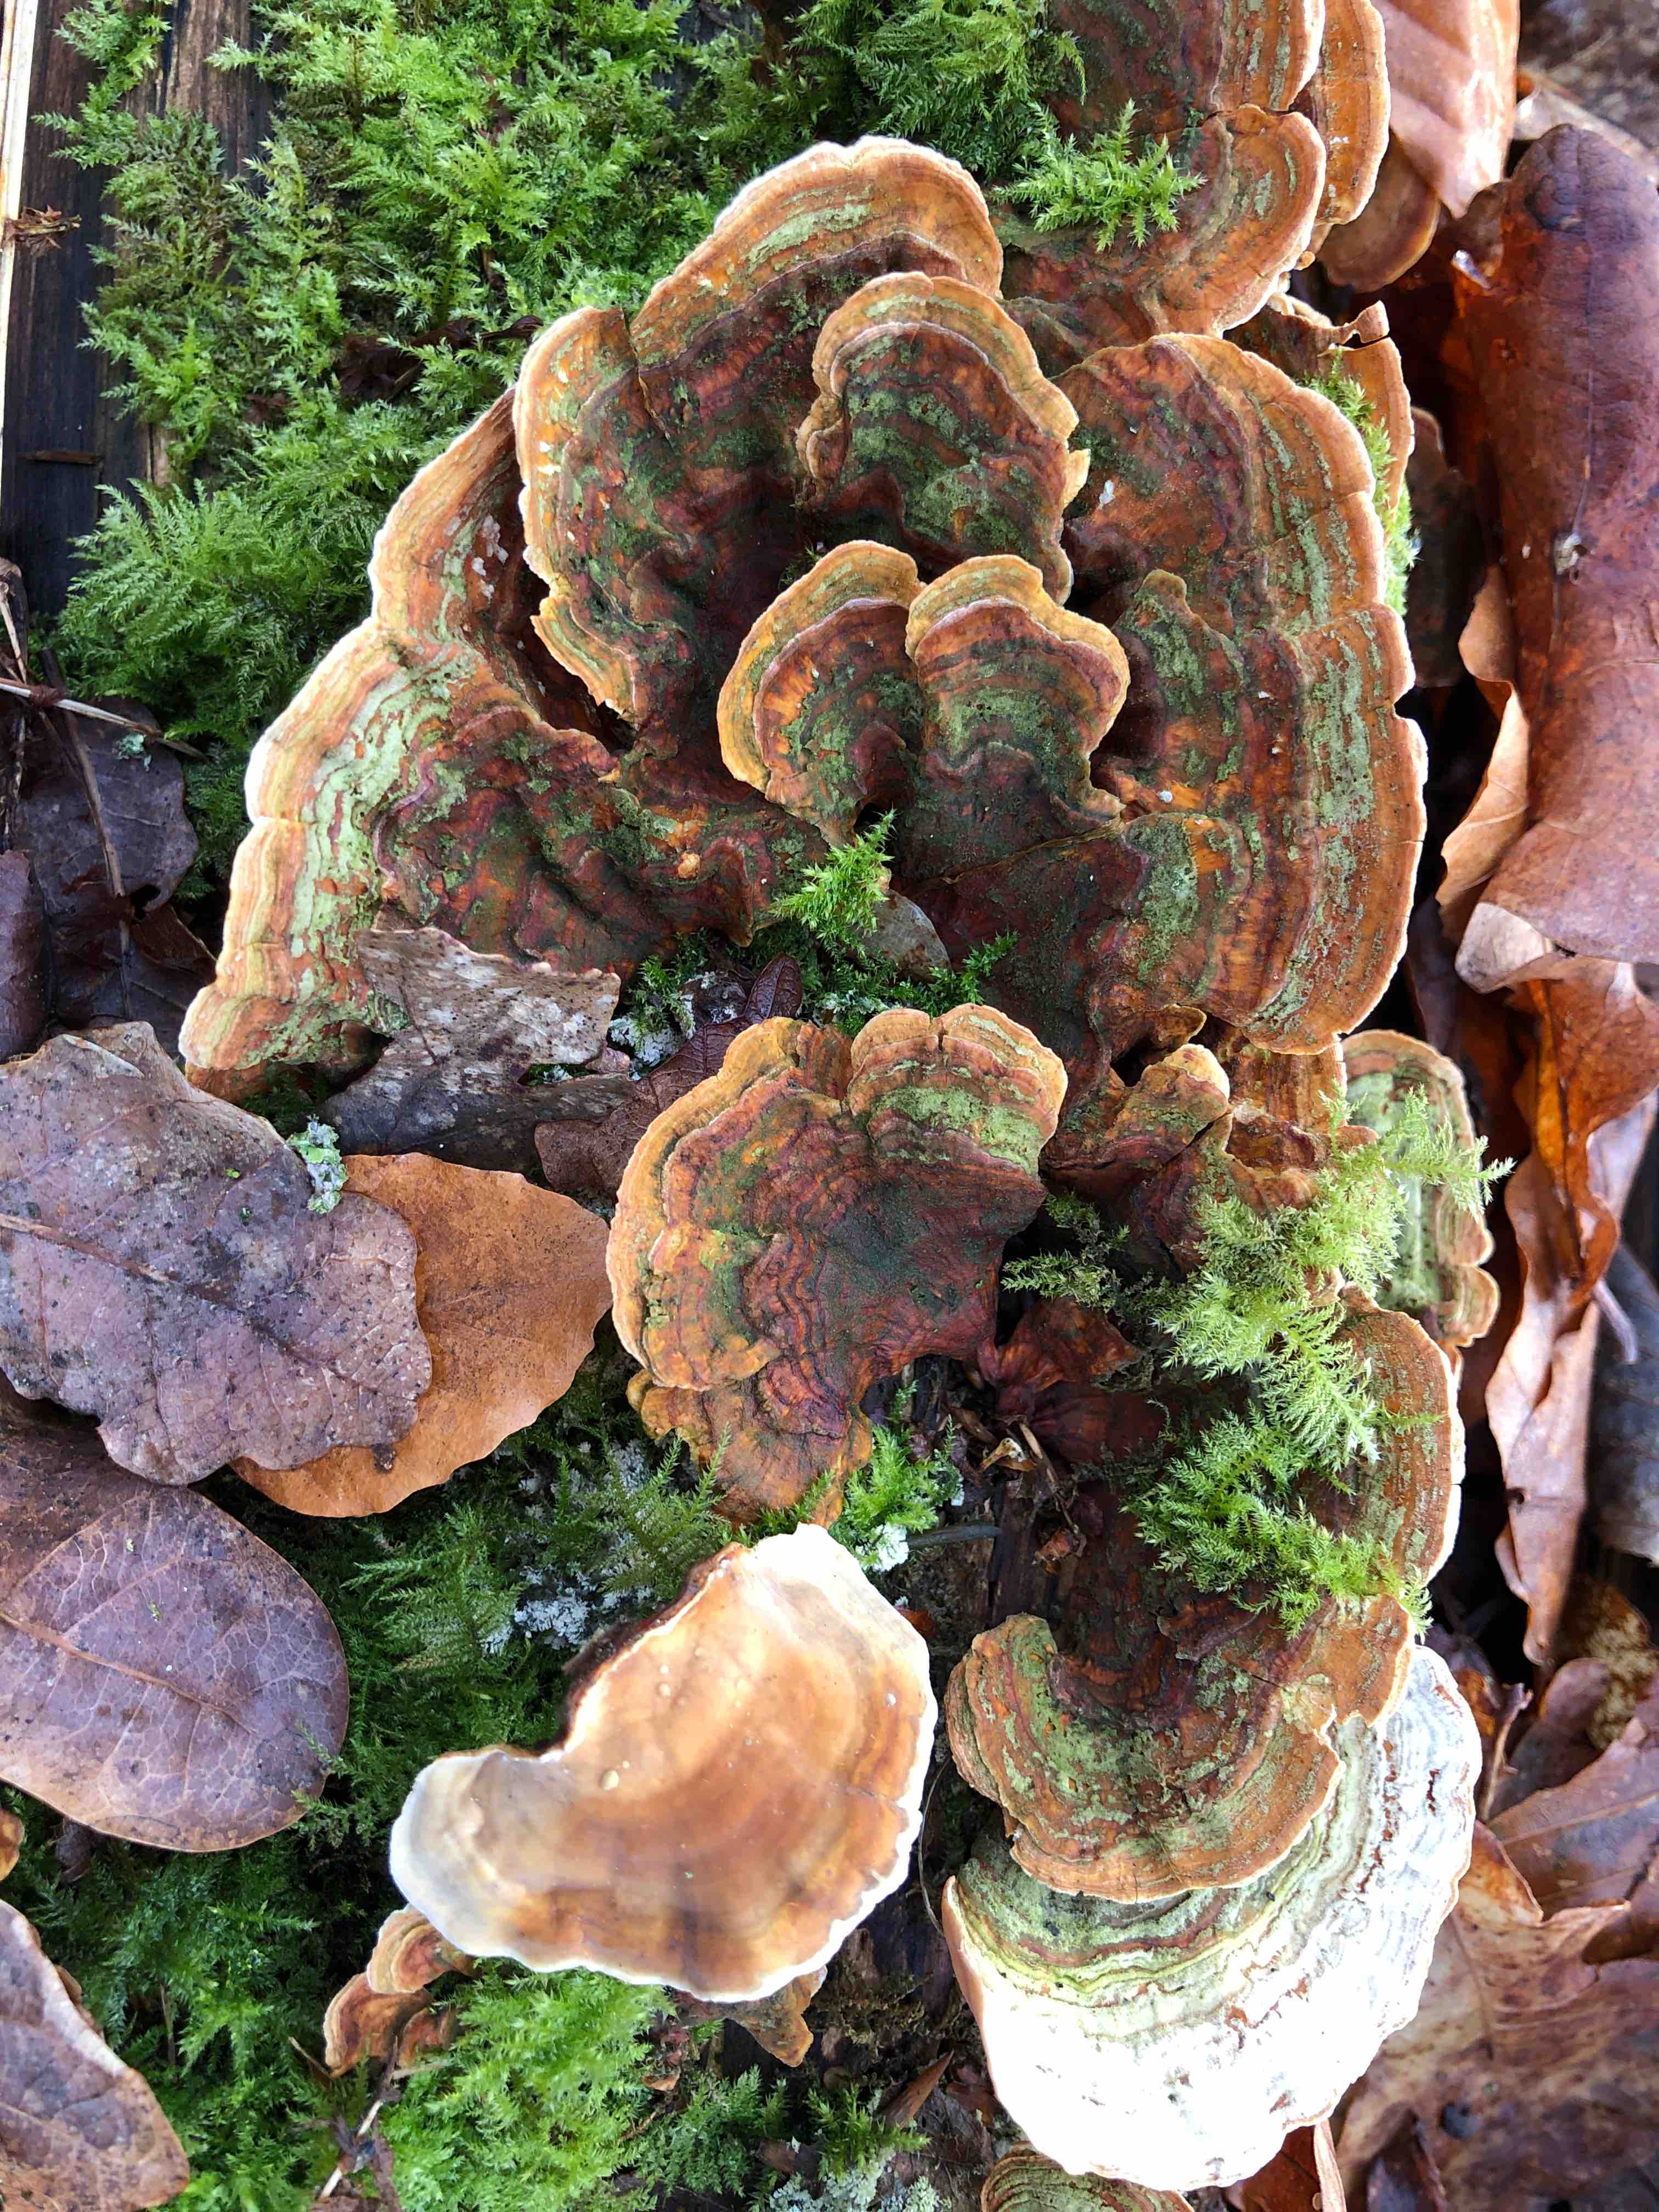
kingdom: Fungi
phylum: Basidiomycota
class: Agaricomycetes
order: Russulales
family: Stereaceae
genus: Stereum
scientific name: Stereum subtomentosum
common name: smuk lædersvamp
